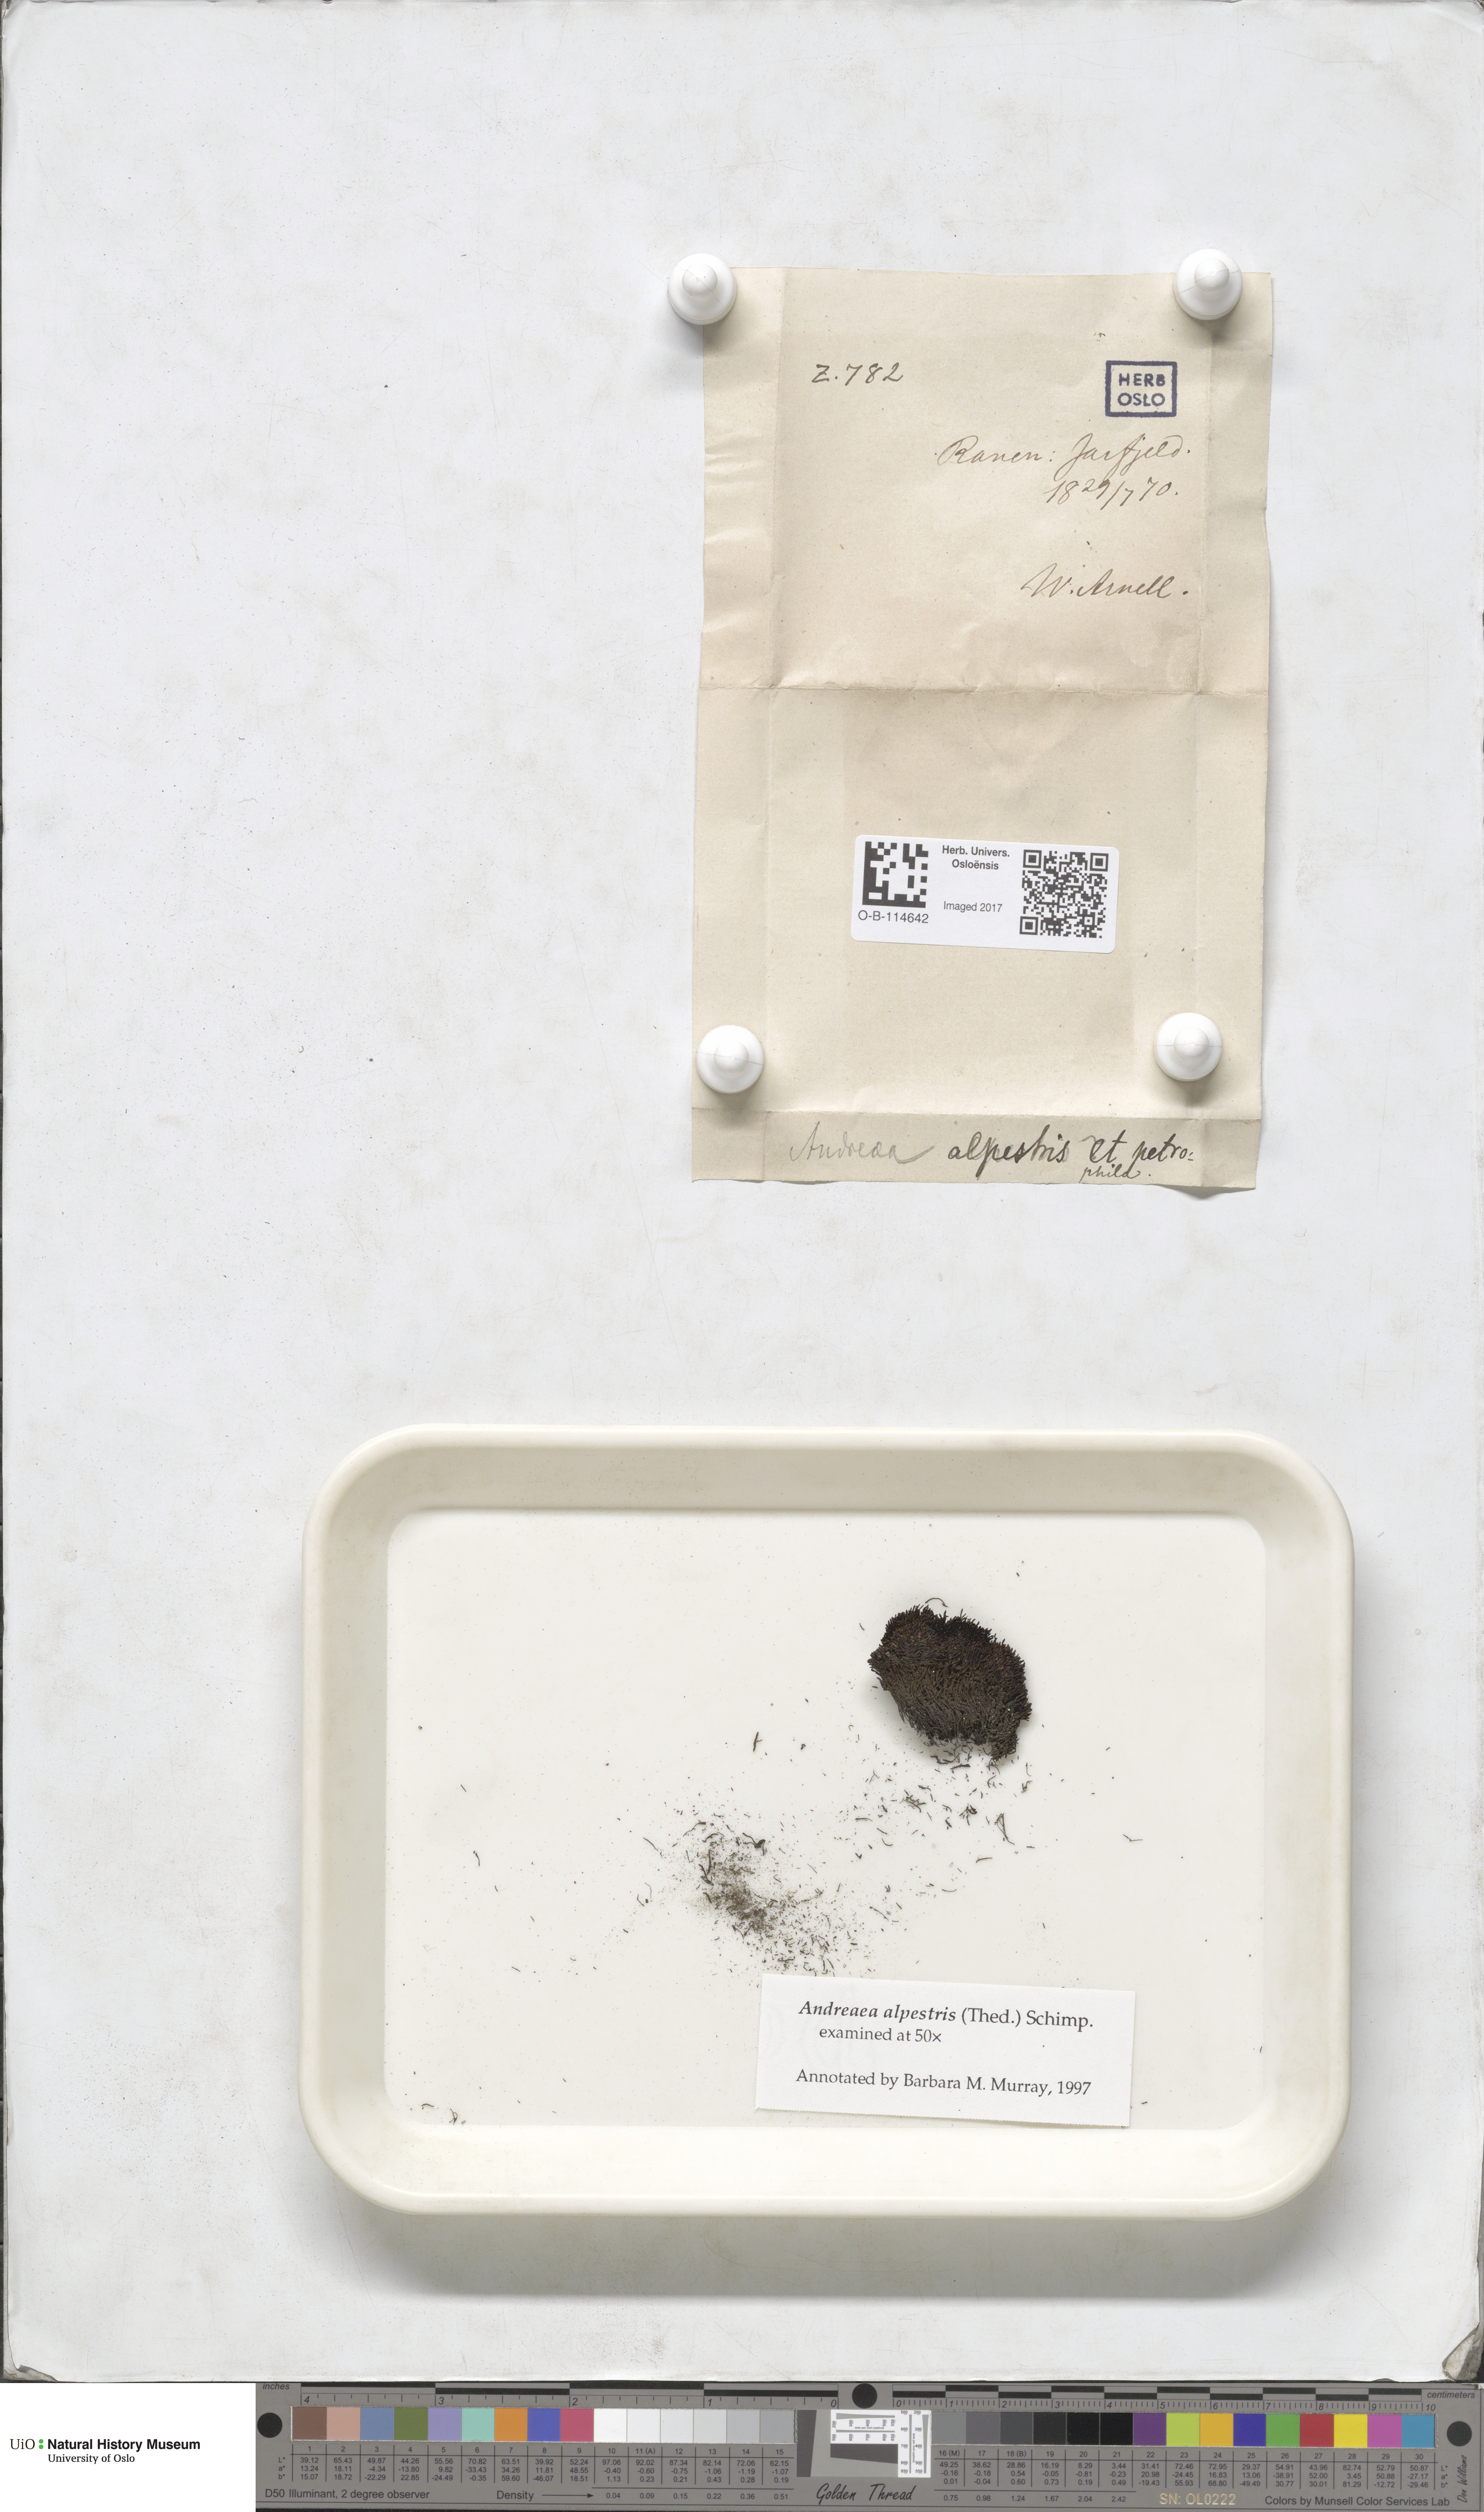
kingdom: Plantae
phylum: Bryophyta
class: Andreaeopsida
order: Andreaeales
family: Andreaeaceae
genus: Andreaea
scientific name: Andreaea alpestris
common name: Slender rock-moss
